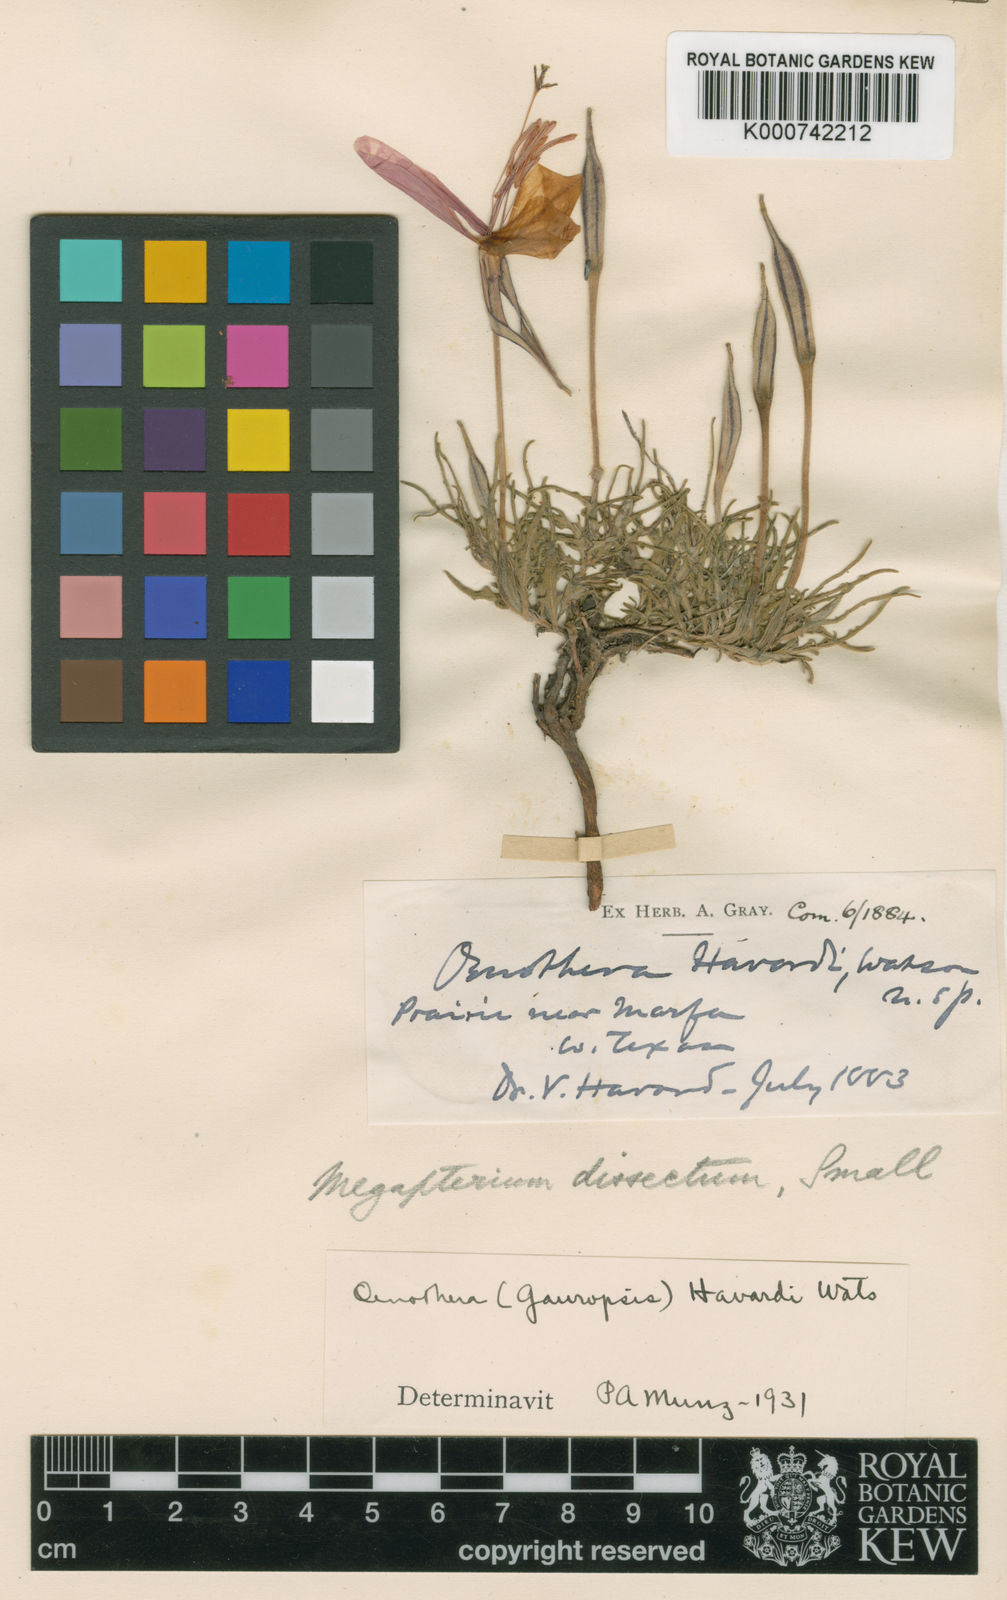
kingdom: Plantae
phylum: Tracheophyta
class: Magnoliopsida
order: Myrtales
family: Onagraceae
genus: Oenothera
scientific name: Oenothera havardii
